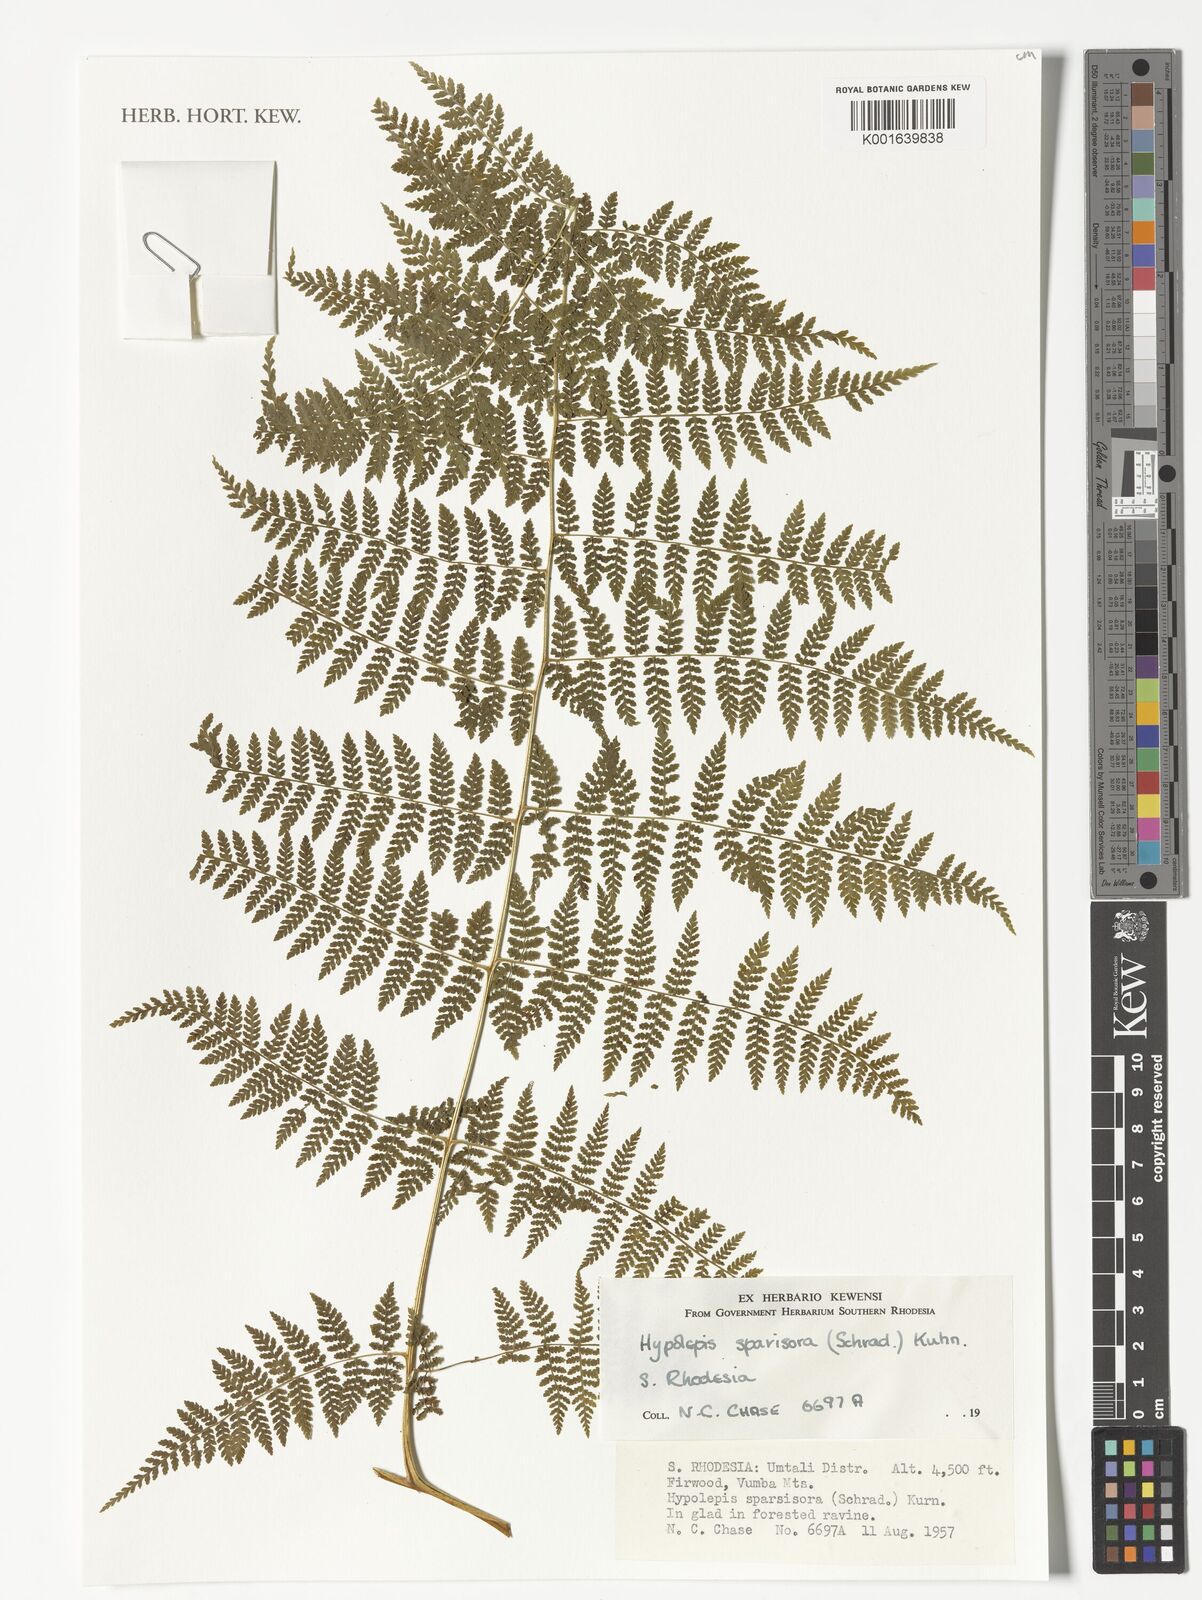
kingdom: Plantae
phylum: Tracheophyta
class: Polypodiopsida
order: Polypodiales
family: Dennstaedtiaceae
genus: Hypolepis
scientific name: Hypolepis sparsisora
